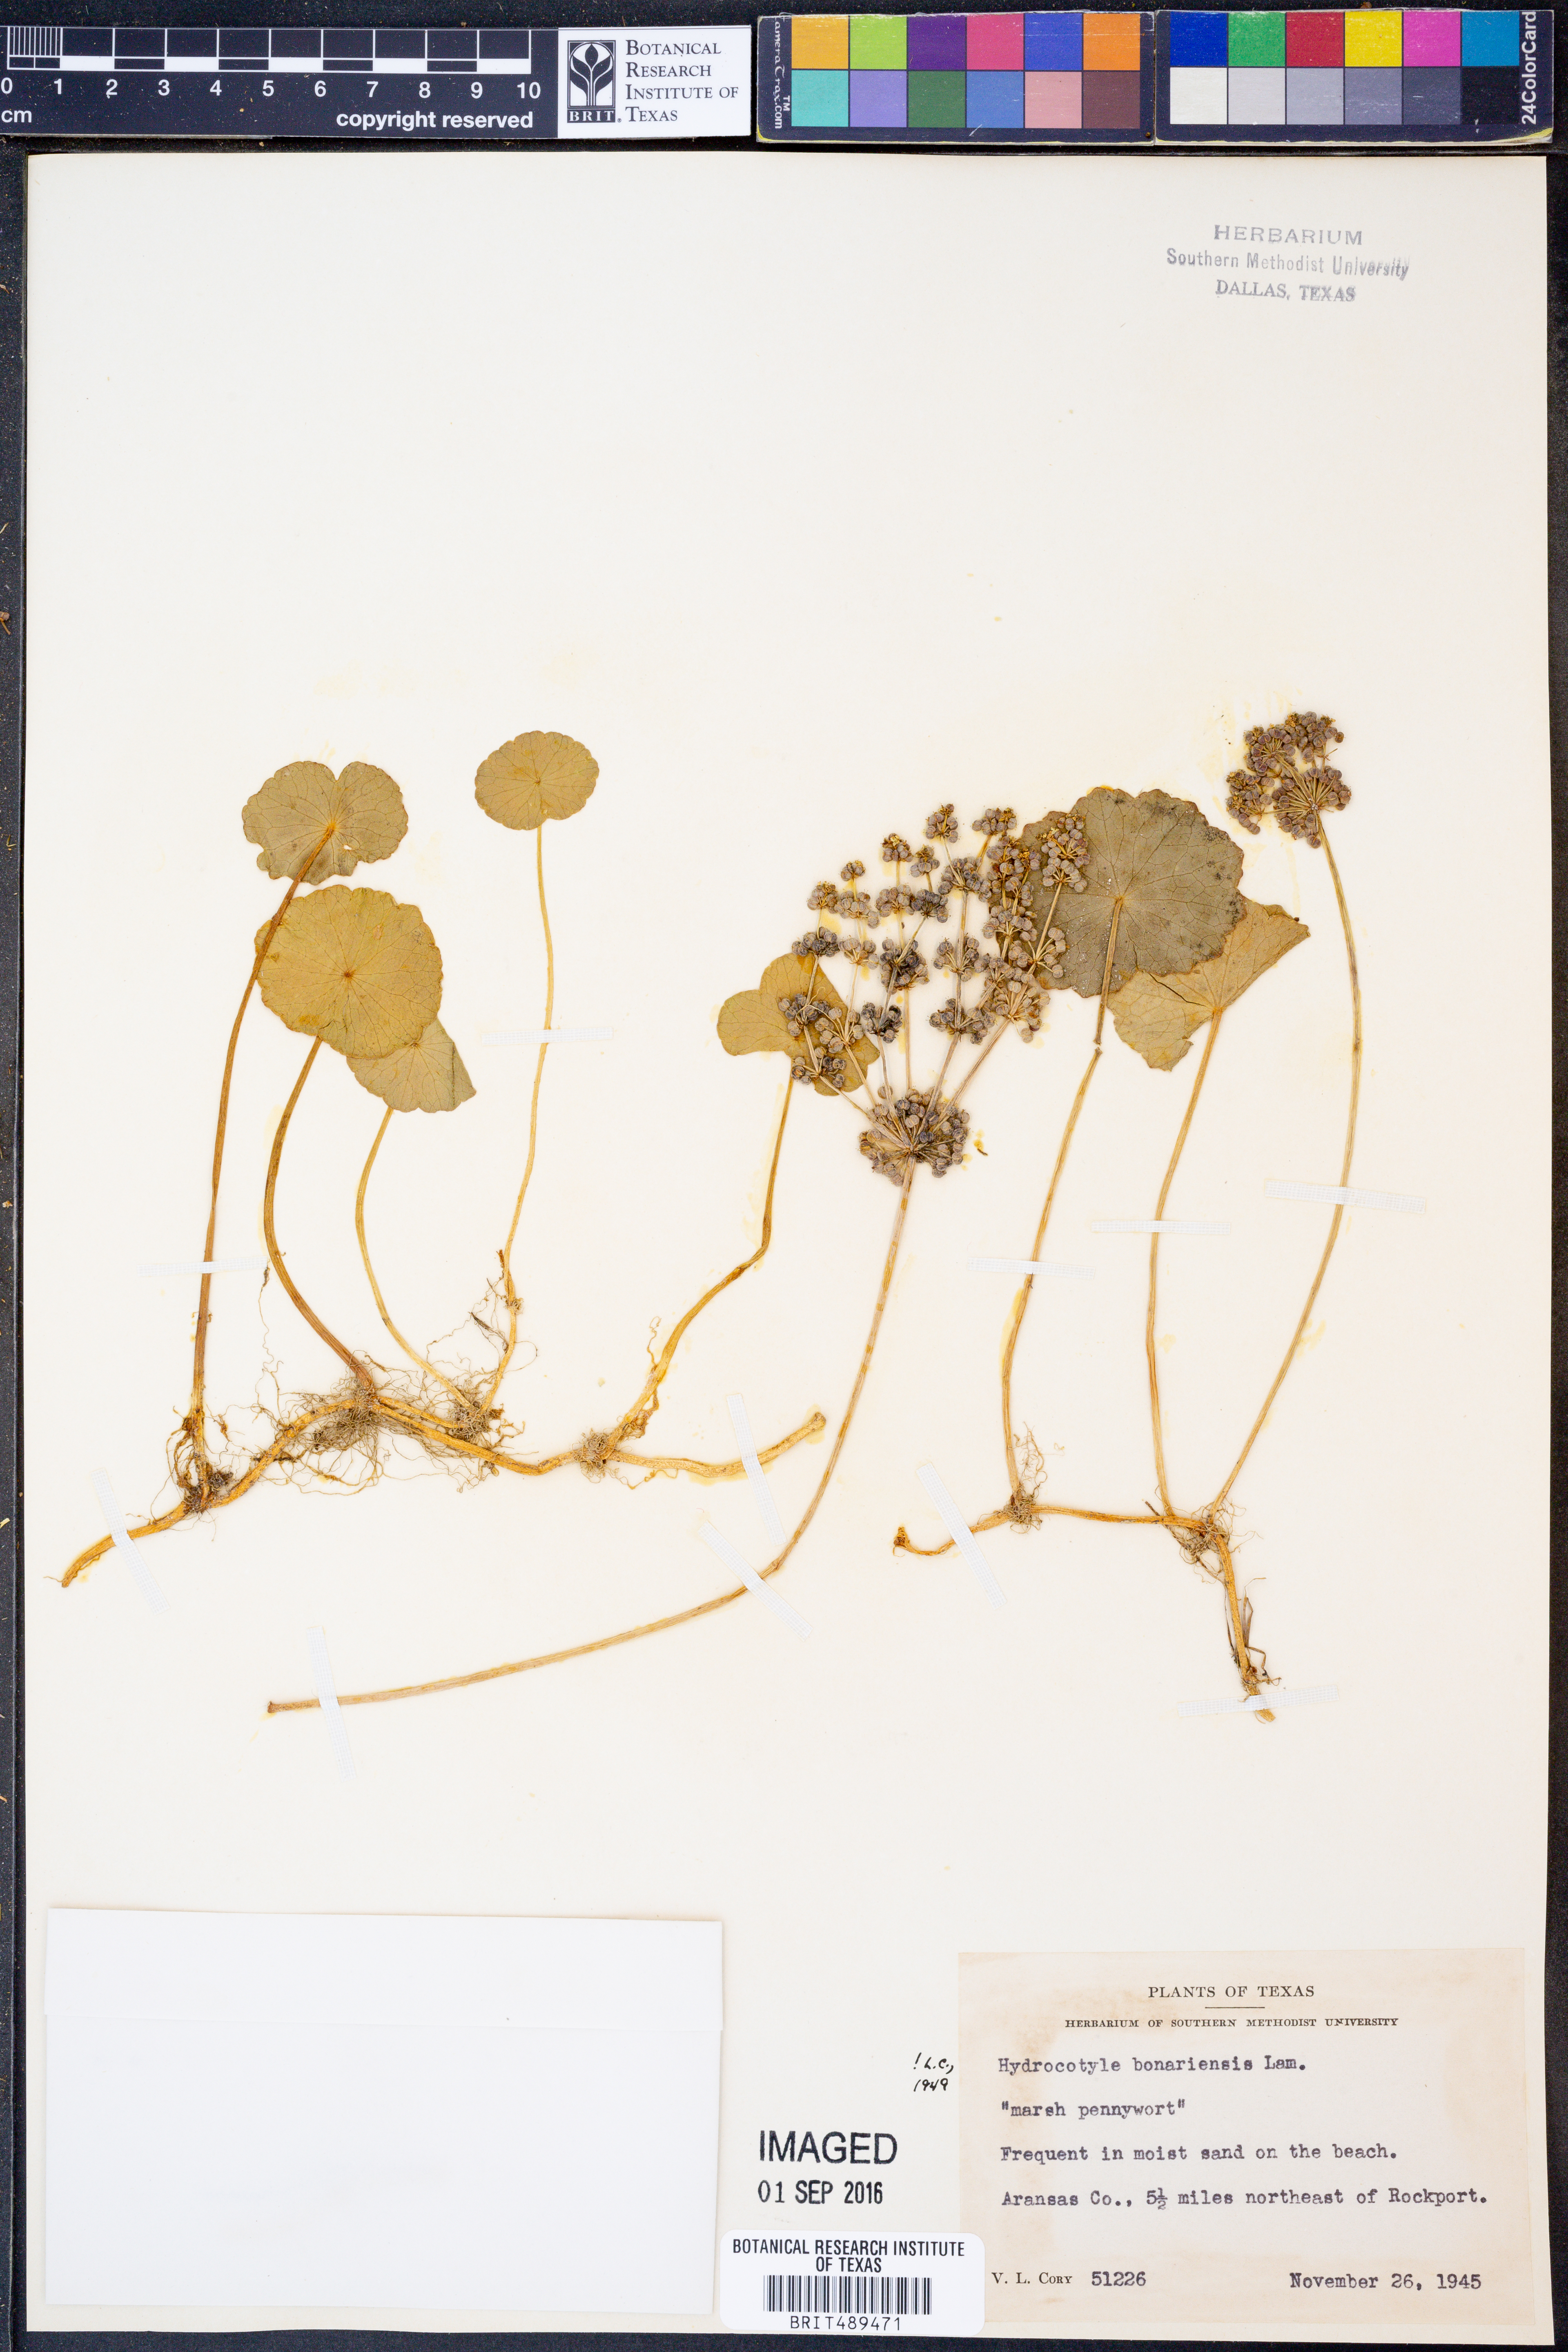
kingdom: Plantae
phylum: Tracheophyta
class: Magnoliopsida
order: Apiales
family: Araliaceae
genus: Hydrocotyle
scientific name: Hydrocotyle bonariensis
